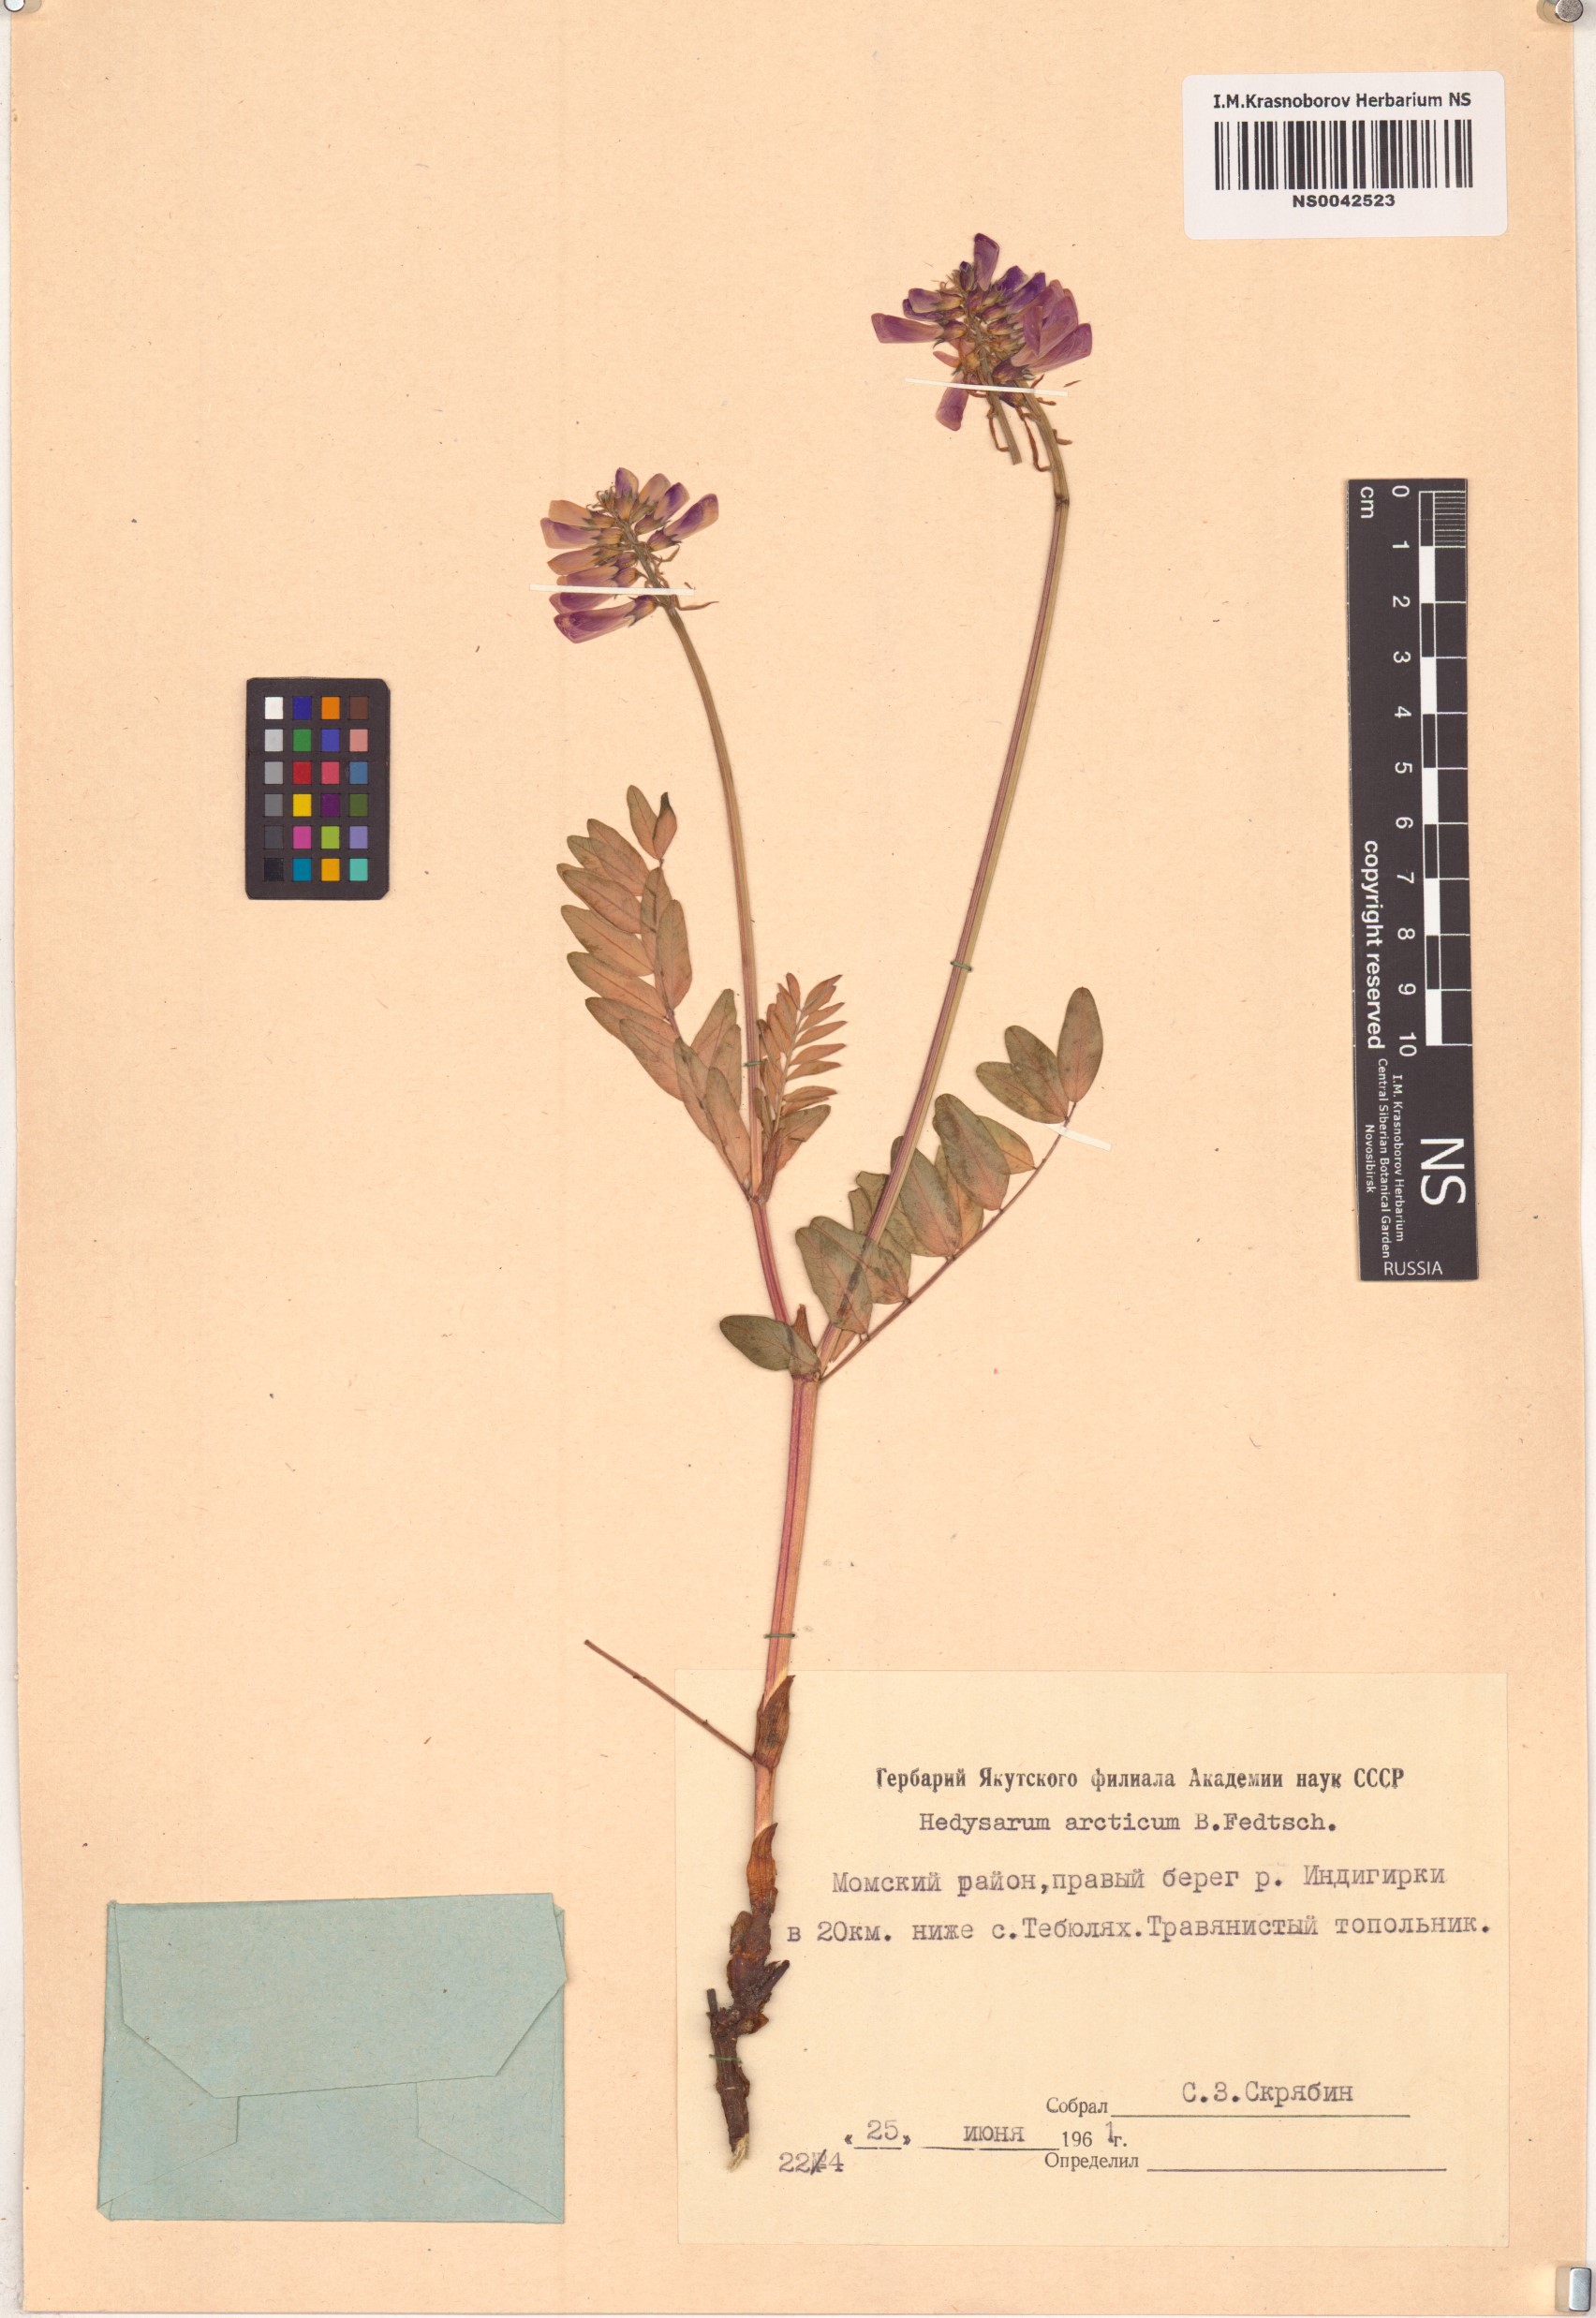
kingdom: Plantae
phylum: Tracheophyta
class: Magnoliopsida
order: Fabales
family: Fabaceae
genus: Hedysarum
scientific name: Hedysarum hedysaroides
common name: Alpine french-honeysuckle
